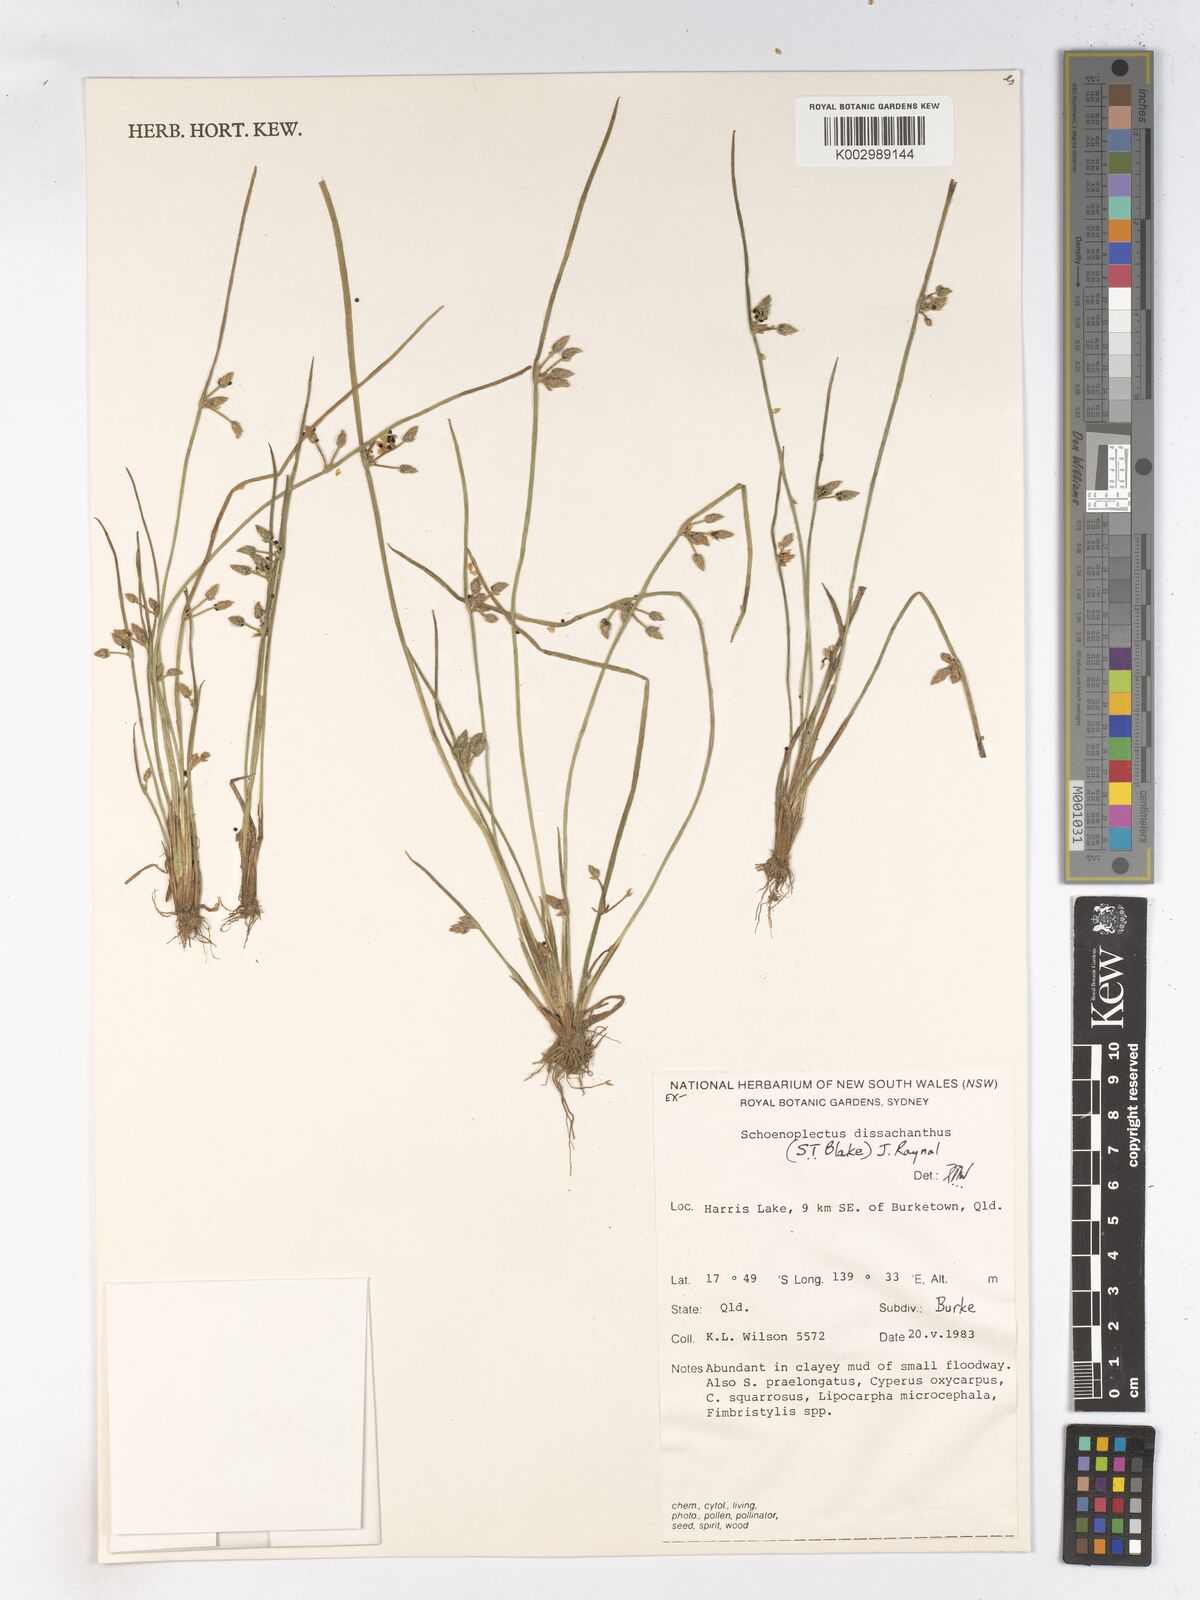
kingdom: Plantae
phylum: Tracheophyta
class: Liliopsida
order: Poales
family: Cyperaceae
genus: Schoenoplectiella
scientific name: Schoenoplectiella dissachantha
